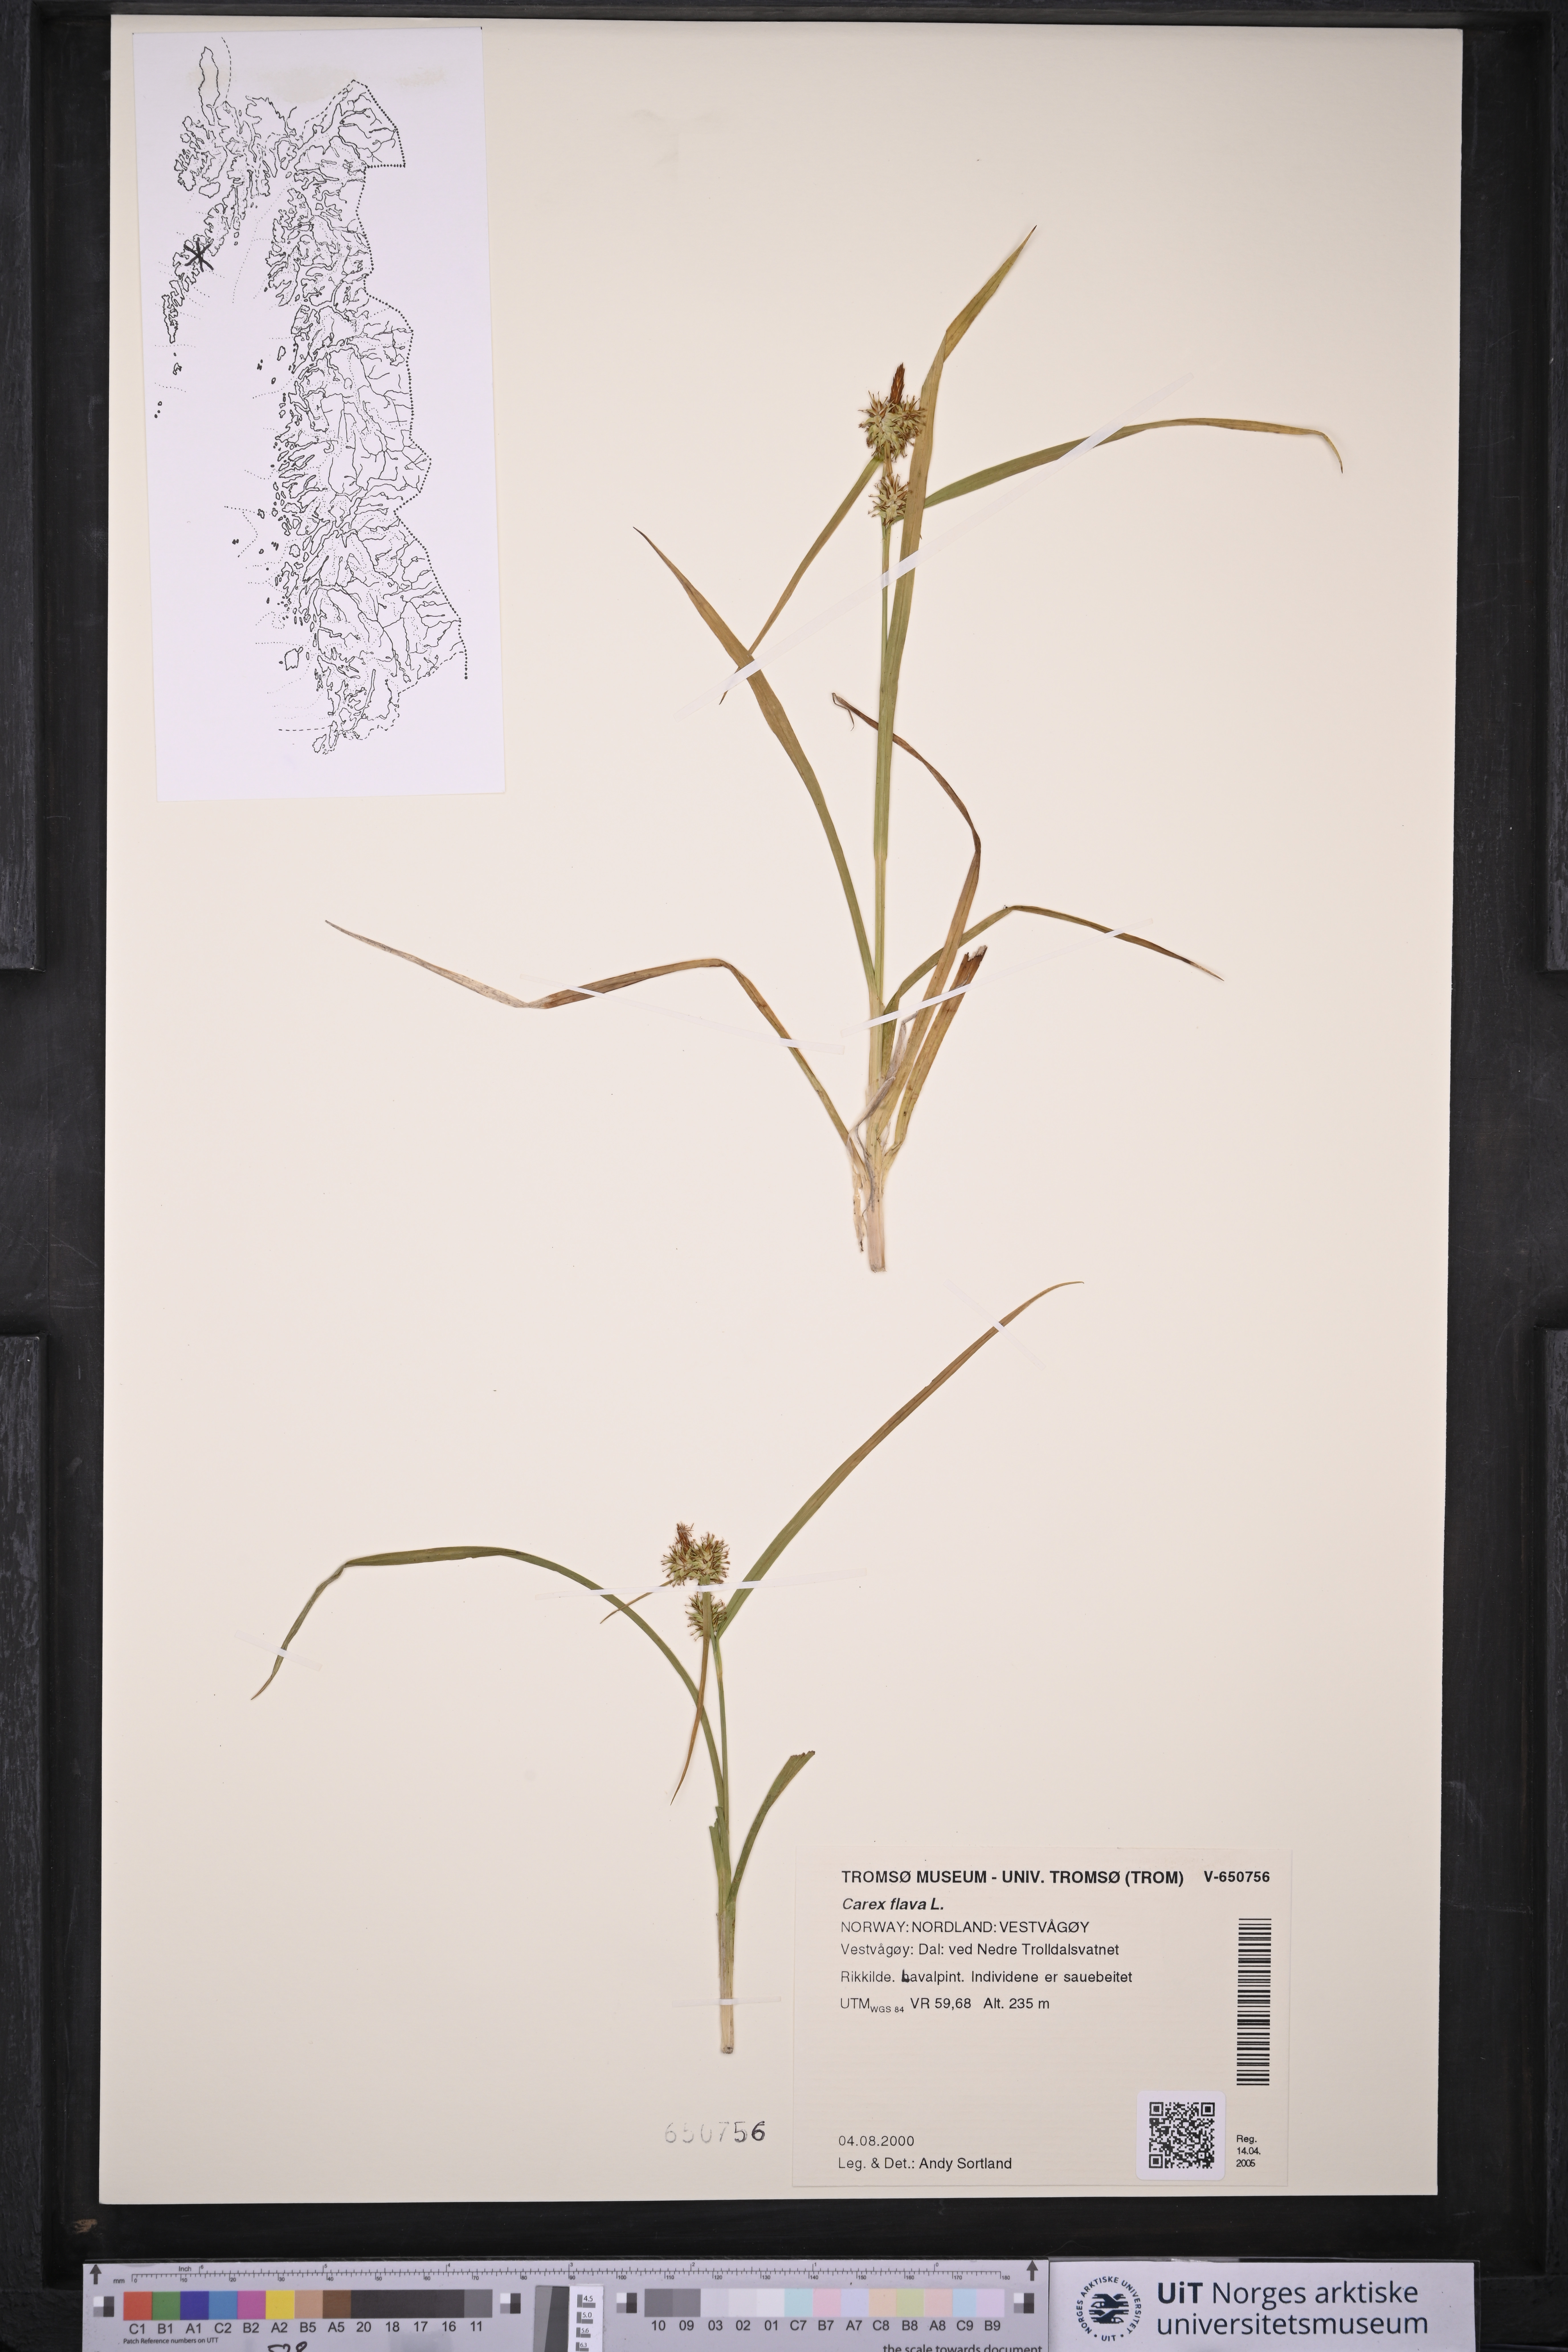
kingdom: Plantae
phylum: Tracheophyta
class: Liliopsida
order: Poales
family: Cyperaceae
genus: Carex
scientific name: Carex flava
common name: Large yellow-sedge
